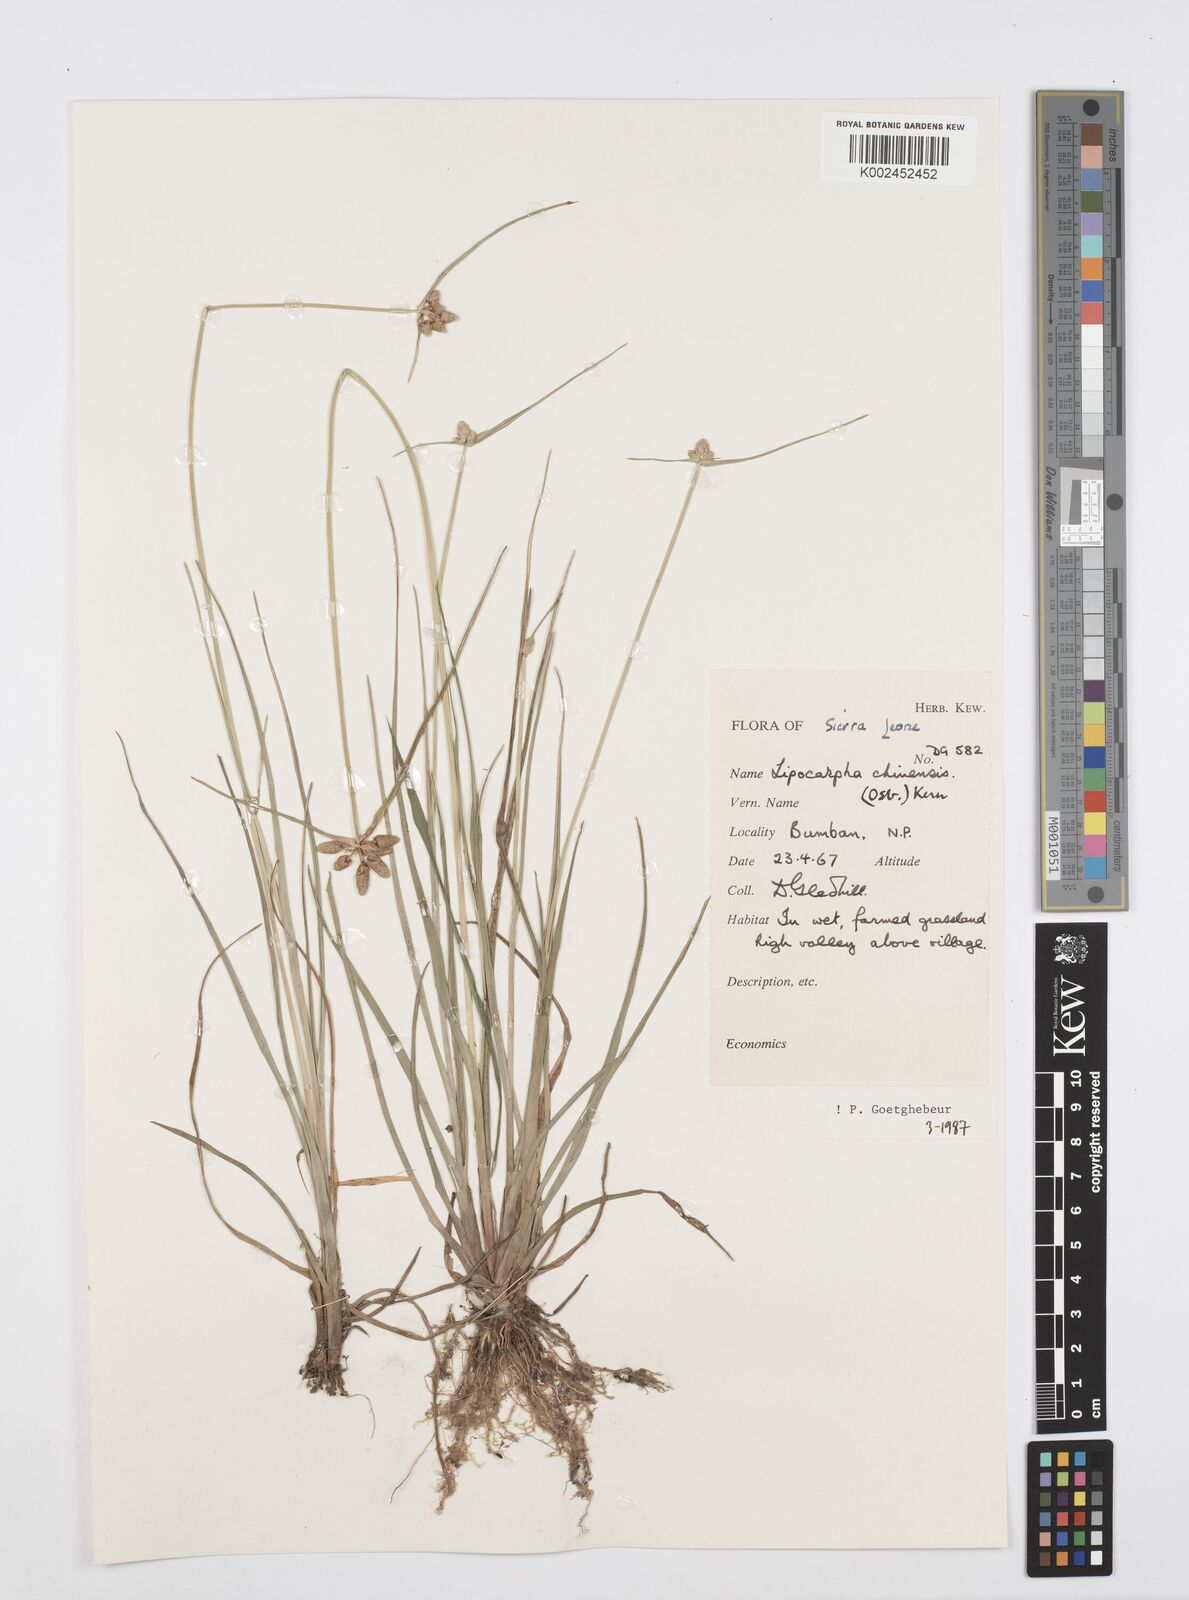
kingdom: Plantae
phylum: Tracheophyta
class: Liliopsida
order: Poales
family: Cyperaceae
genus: Cyperus
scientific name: Cyperus albescens
